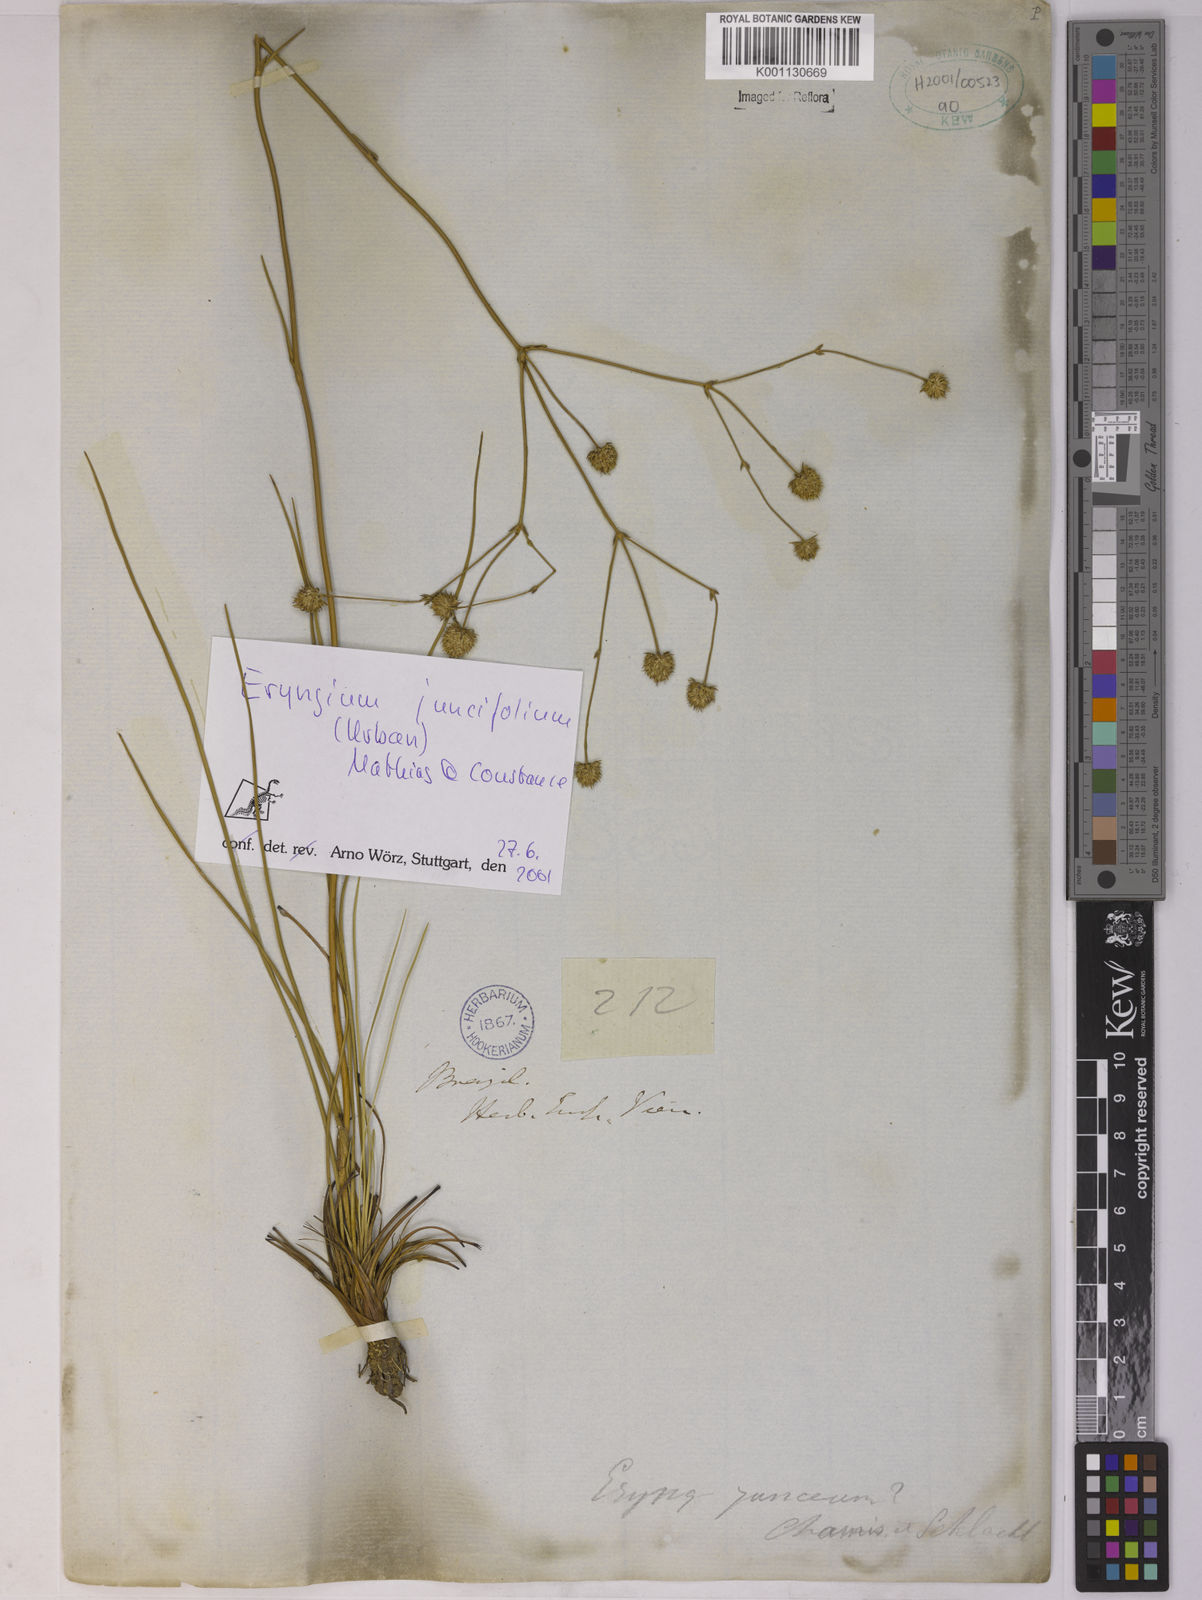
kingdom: Plantae
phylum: Tracheophyta
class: Magnoliopsida
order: Apiales
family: Apiaceae
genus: Eryngium
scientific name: Eryngium juncifolium
